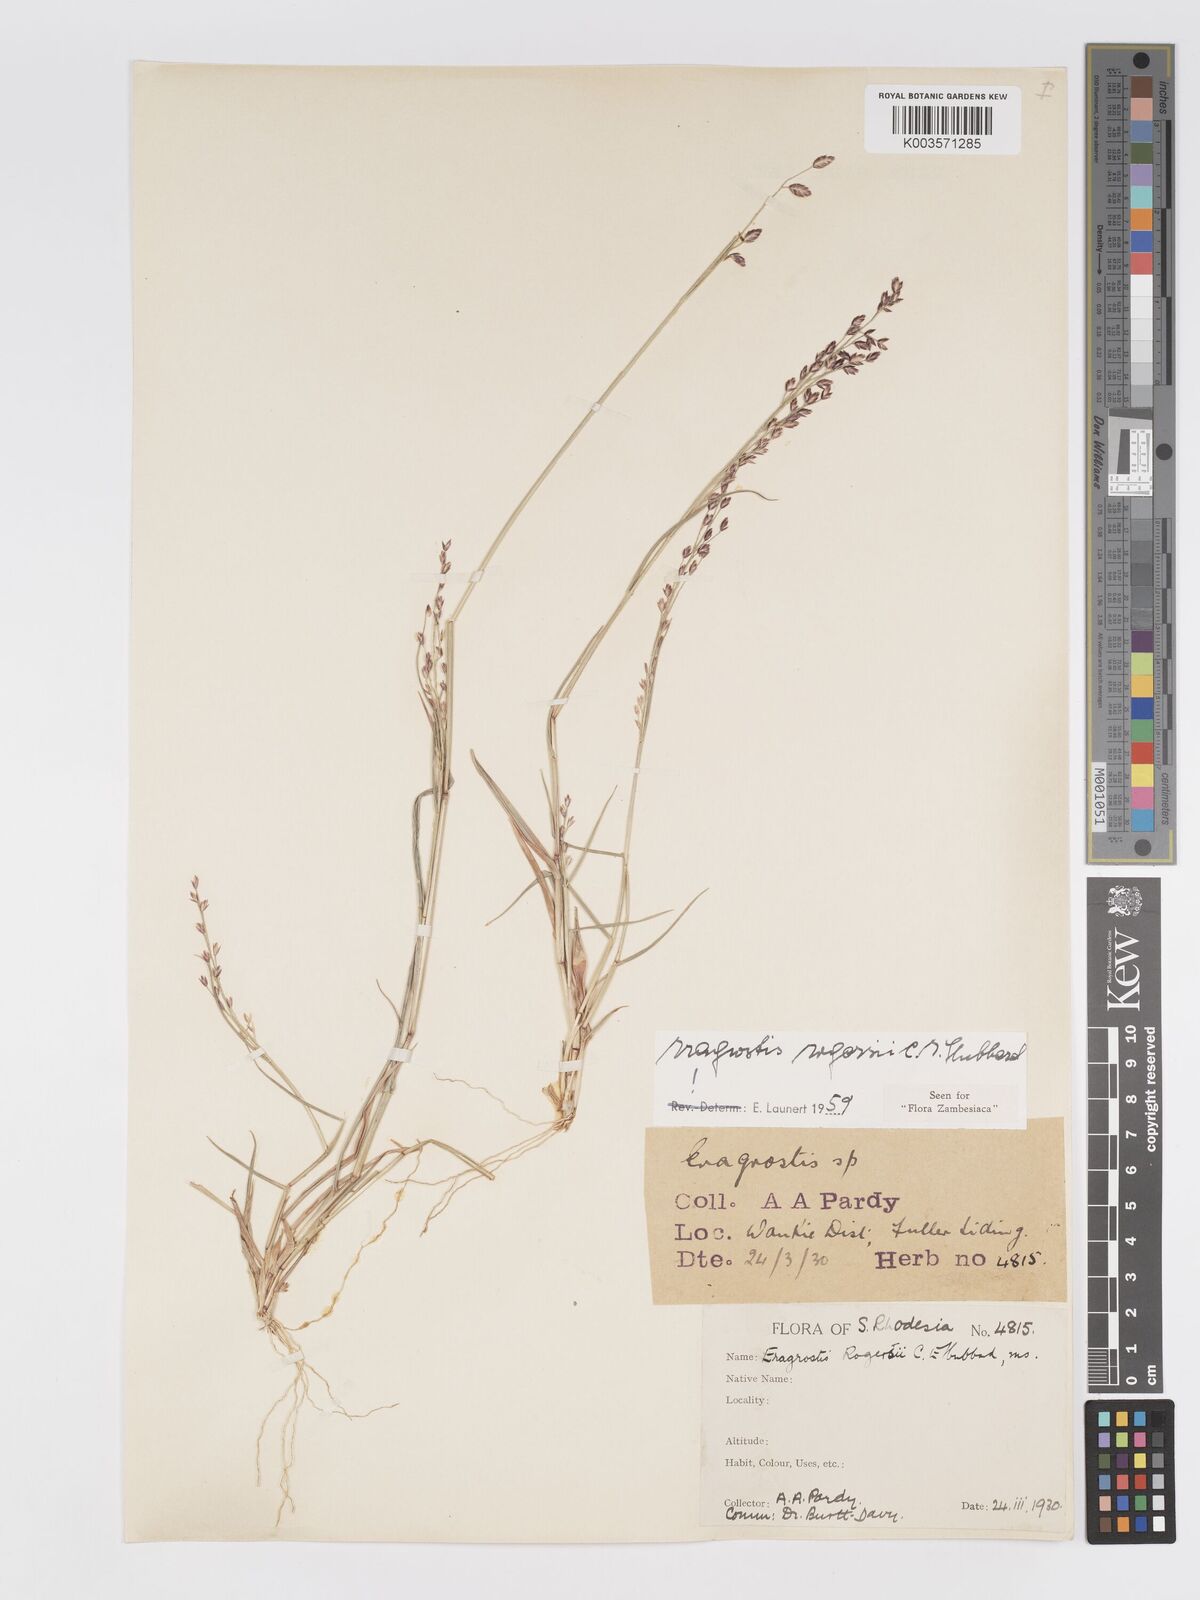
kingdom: Plantae
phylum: Tracheophyta
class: Liliopsida
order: Poales
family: Poaceae
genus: Eragrostis
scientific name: Eragrostis rogersii
